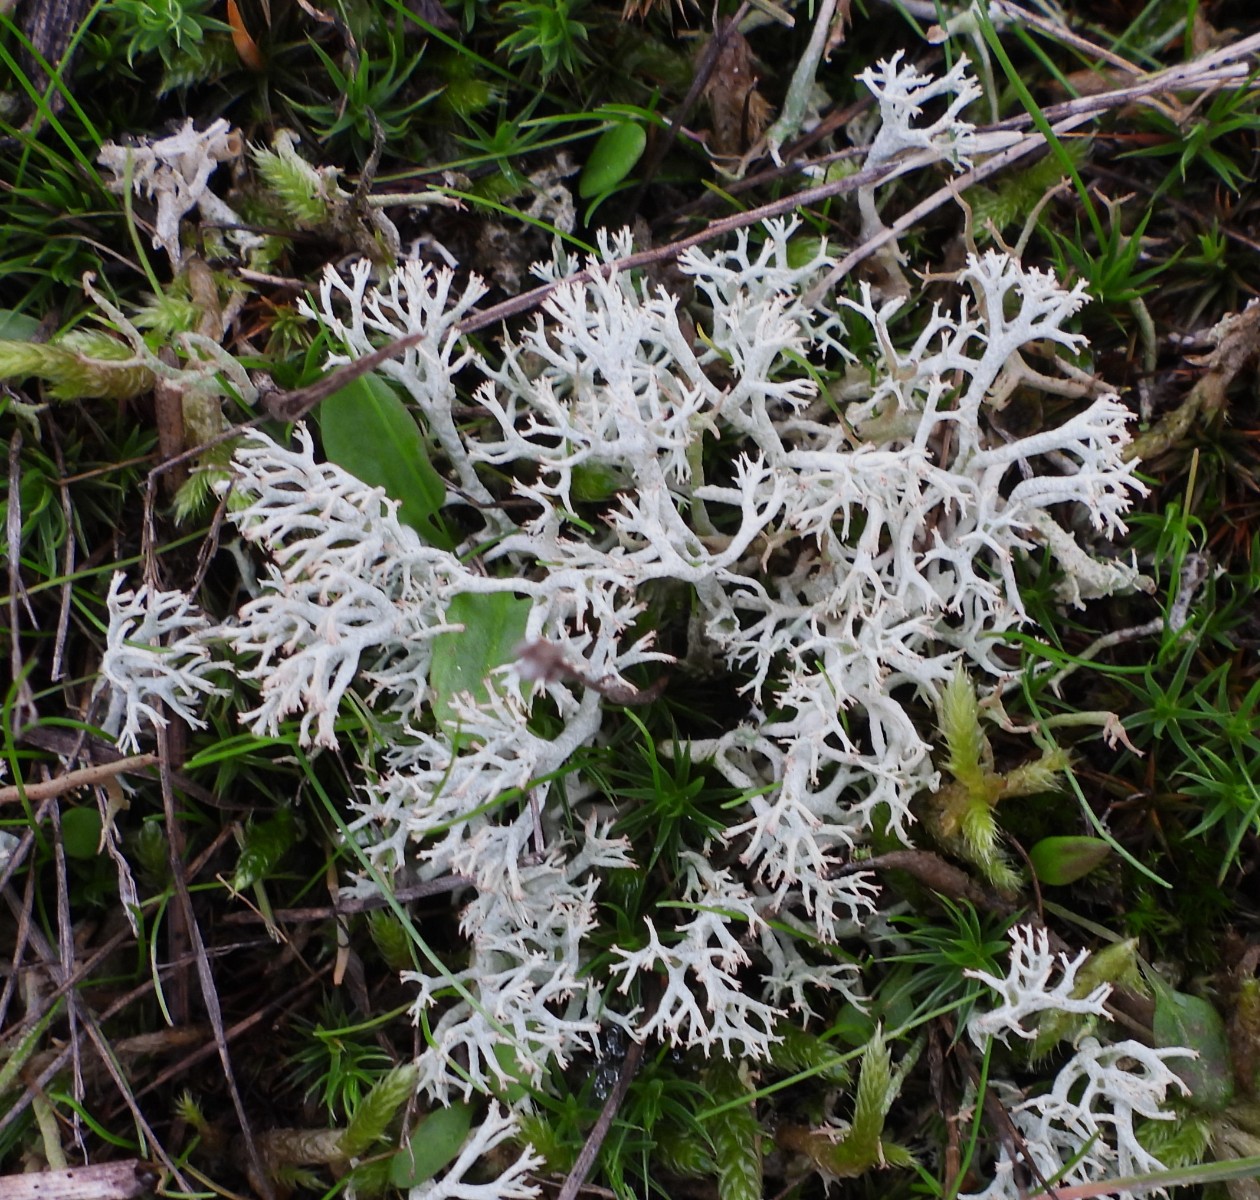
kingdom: Fungi
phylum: Ascomycota
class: Lecanoromycetes
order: Lecanorales
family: Cladoniaceae
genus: Cladonia
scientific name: Cladonia
